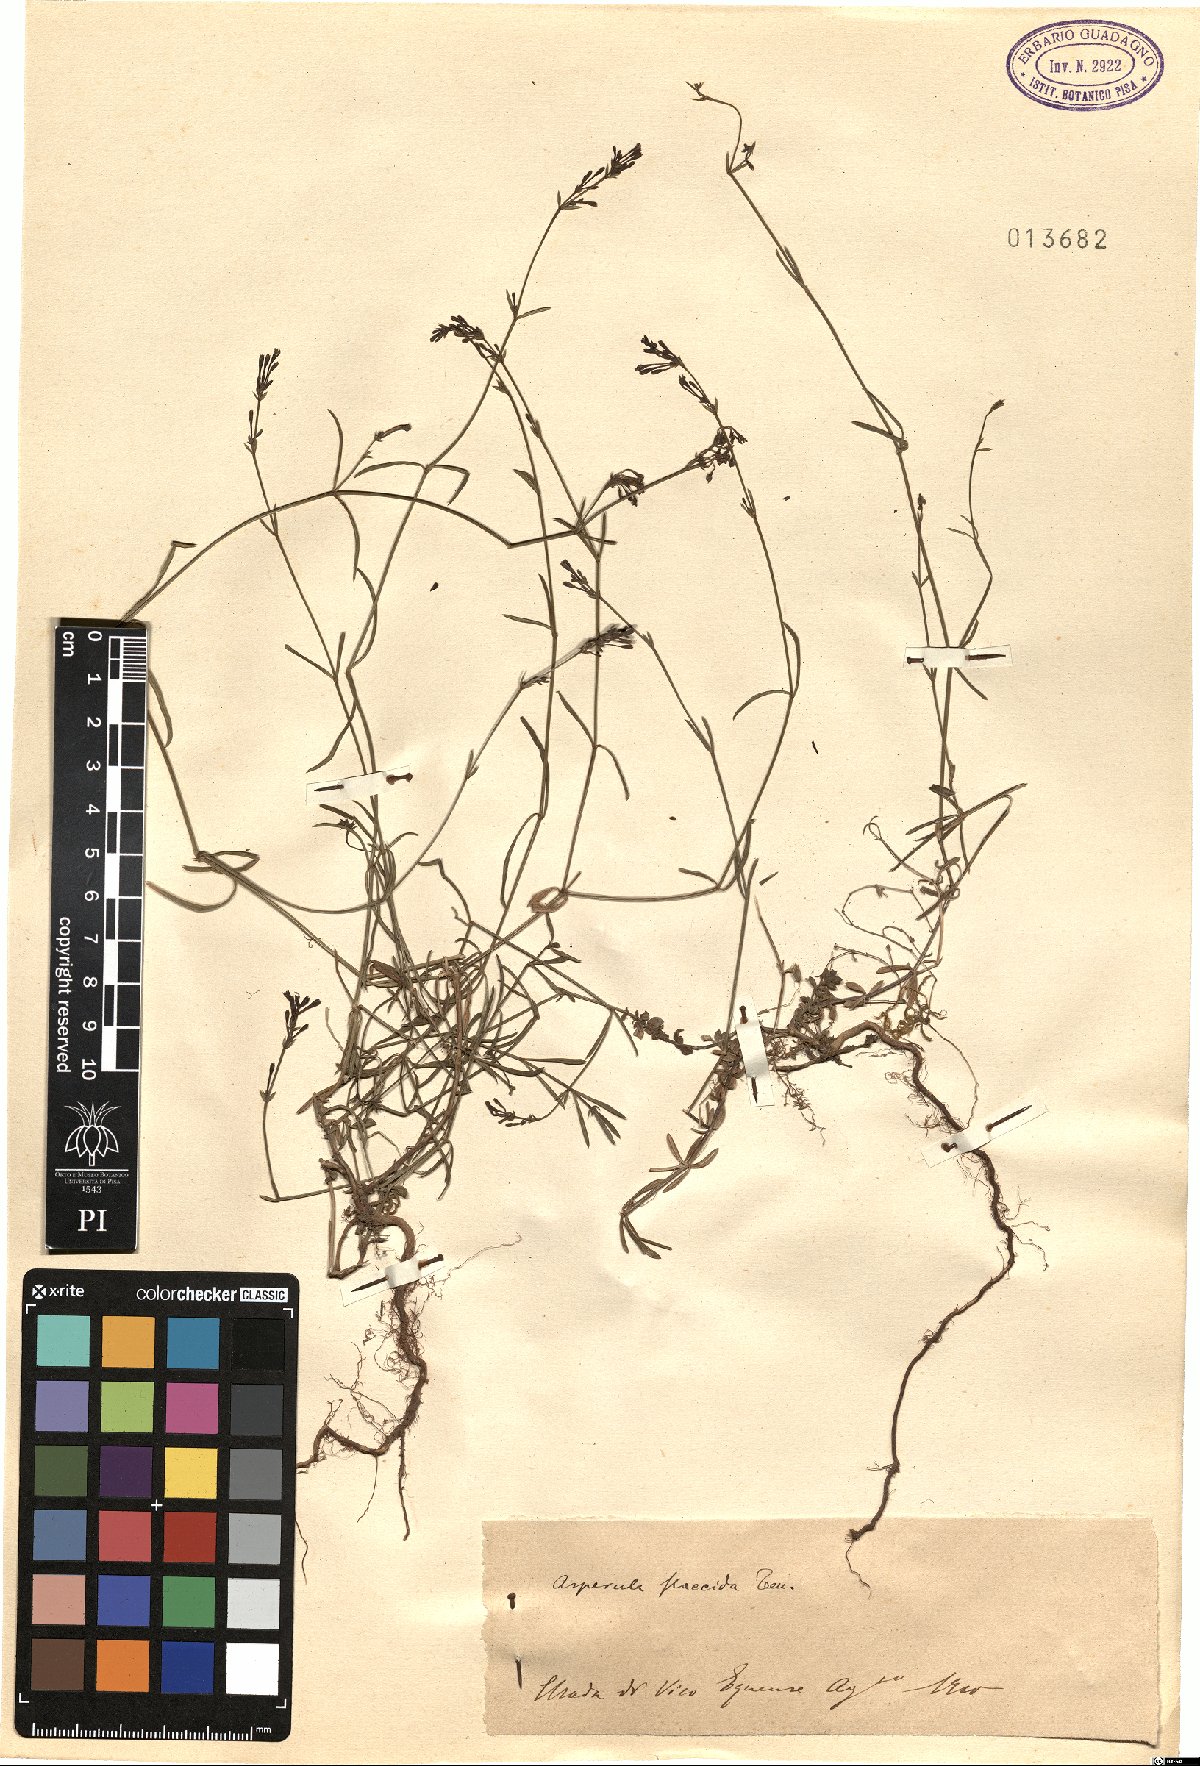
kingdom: Plantae
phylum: Tracheophyta
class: Magnoliopsida
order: Gentianales
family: Rubiaceae
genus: Cynanchica
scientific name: Cynanchica aristata
